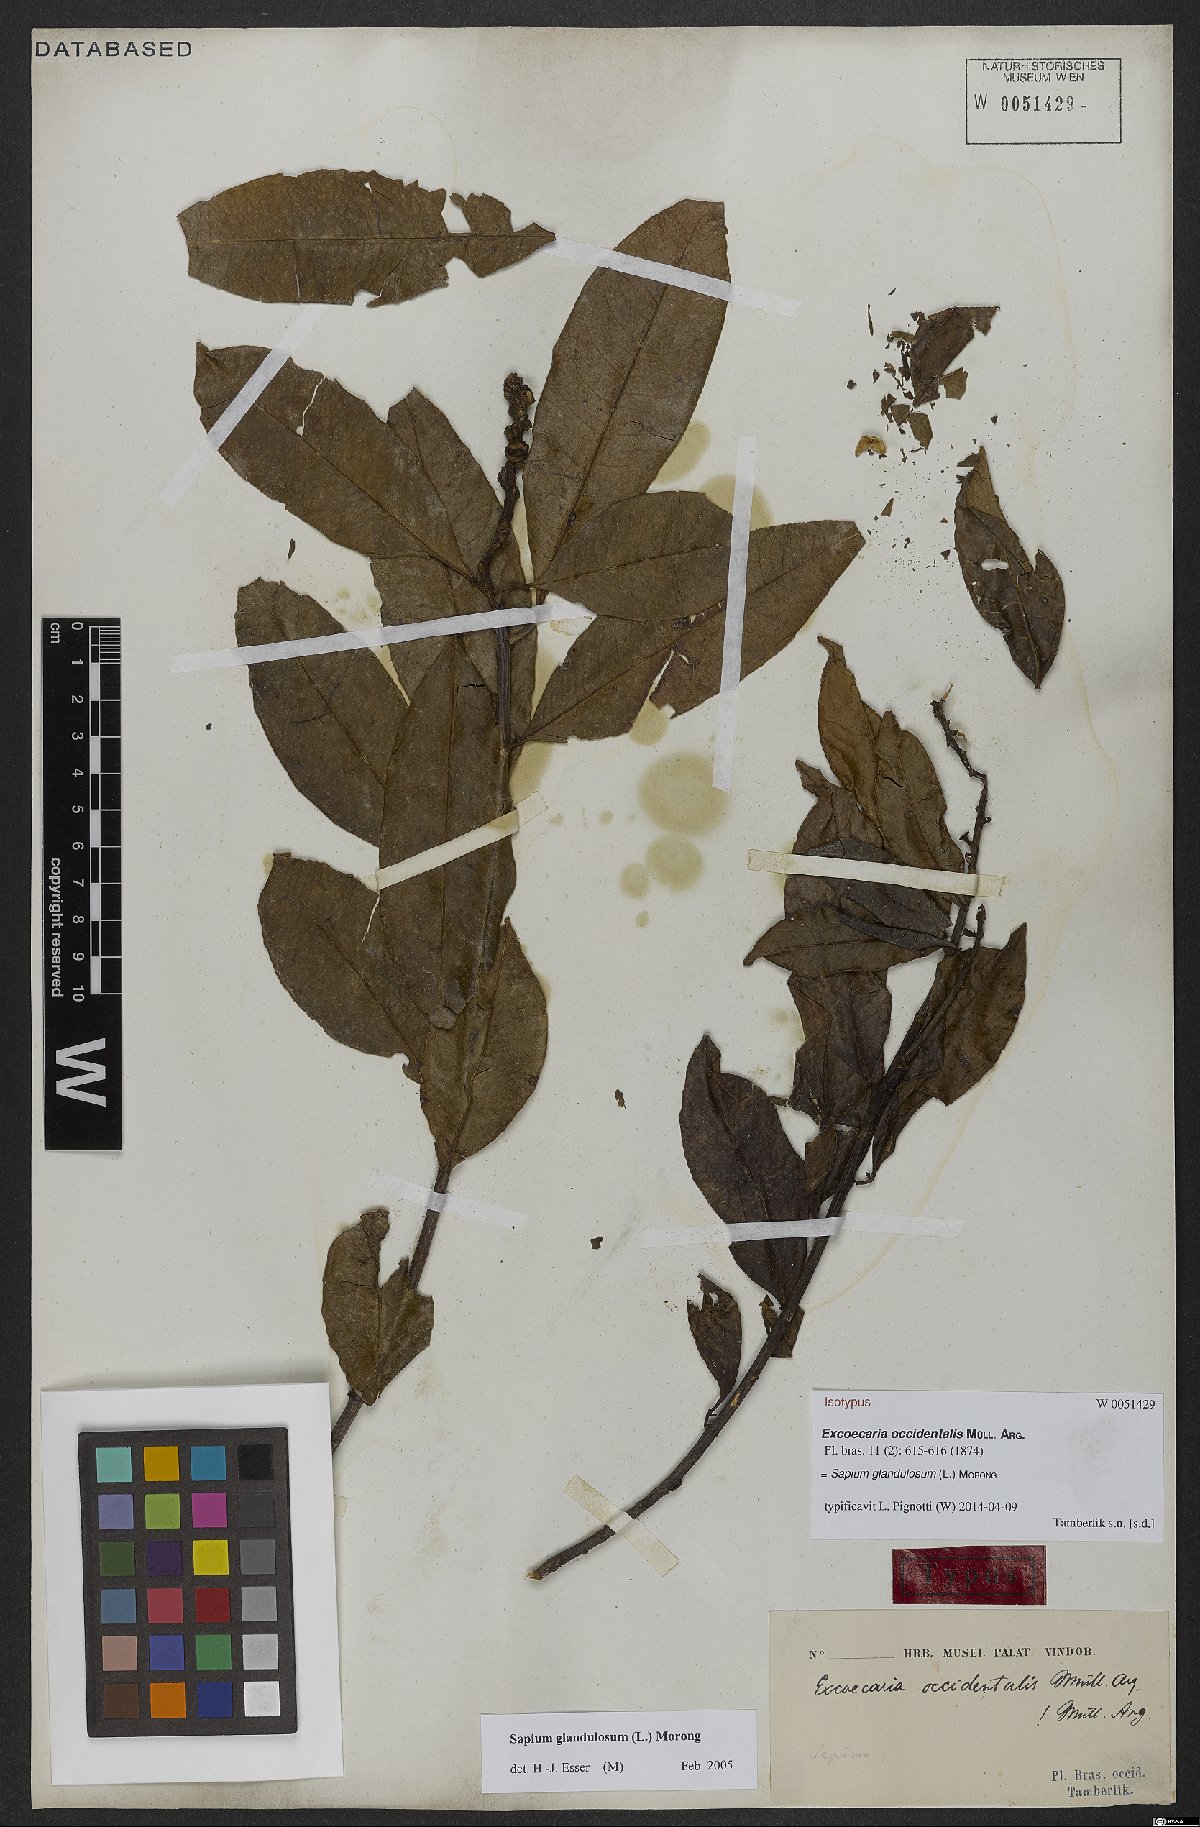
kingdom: Plantae
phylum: Tracheophyta
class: Magnoliopsida
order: Malpighiales
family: Euphorbiaceae
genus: Sapium
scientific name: Sapium glandulosum
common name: Milktree
